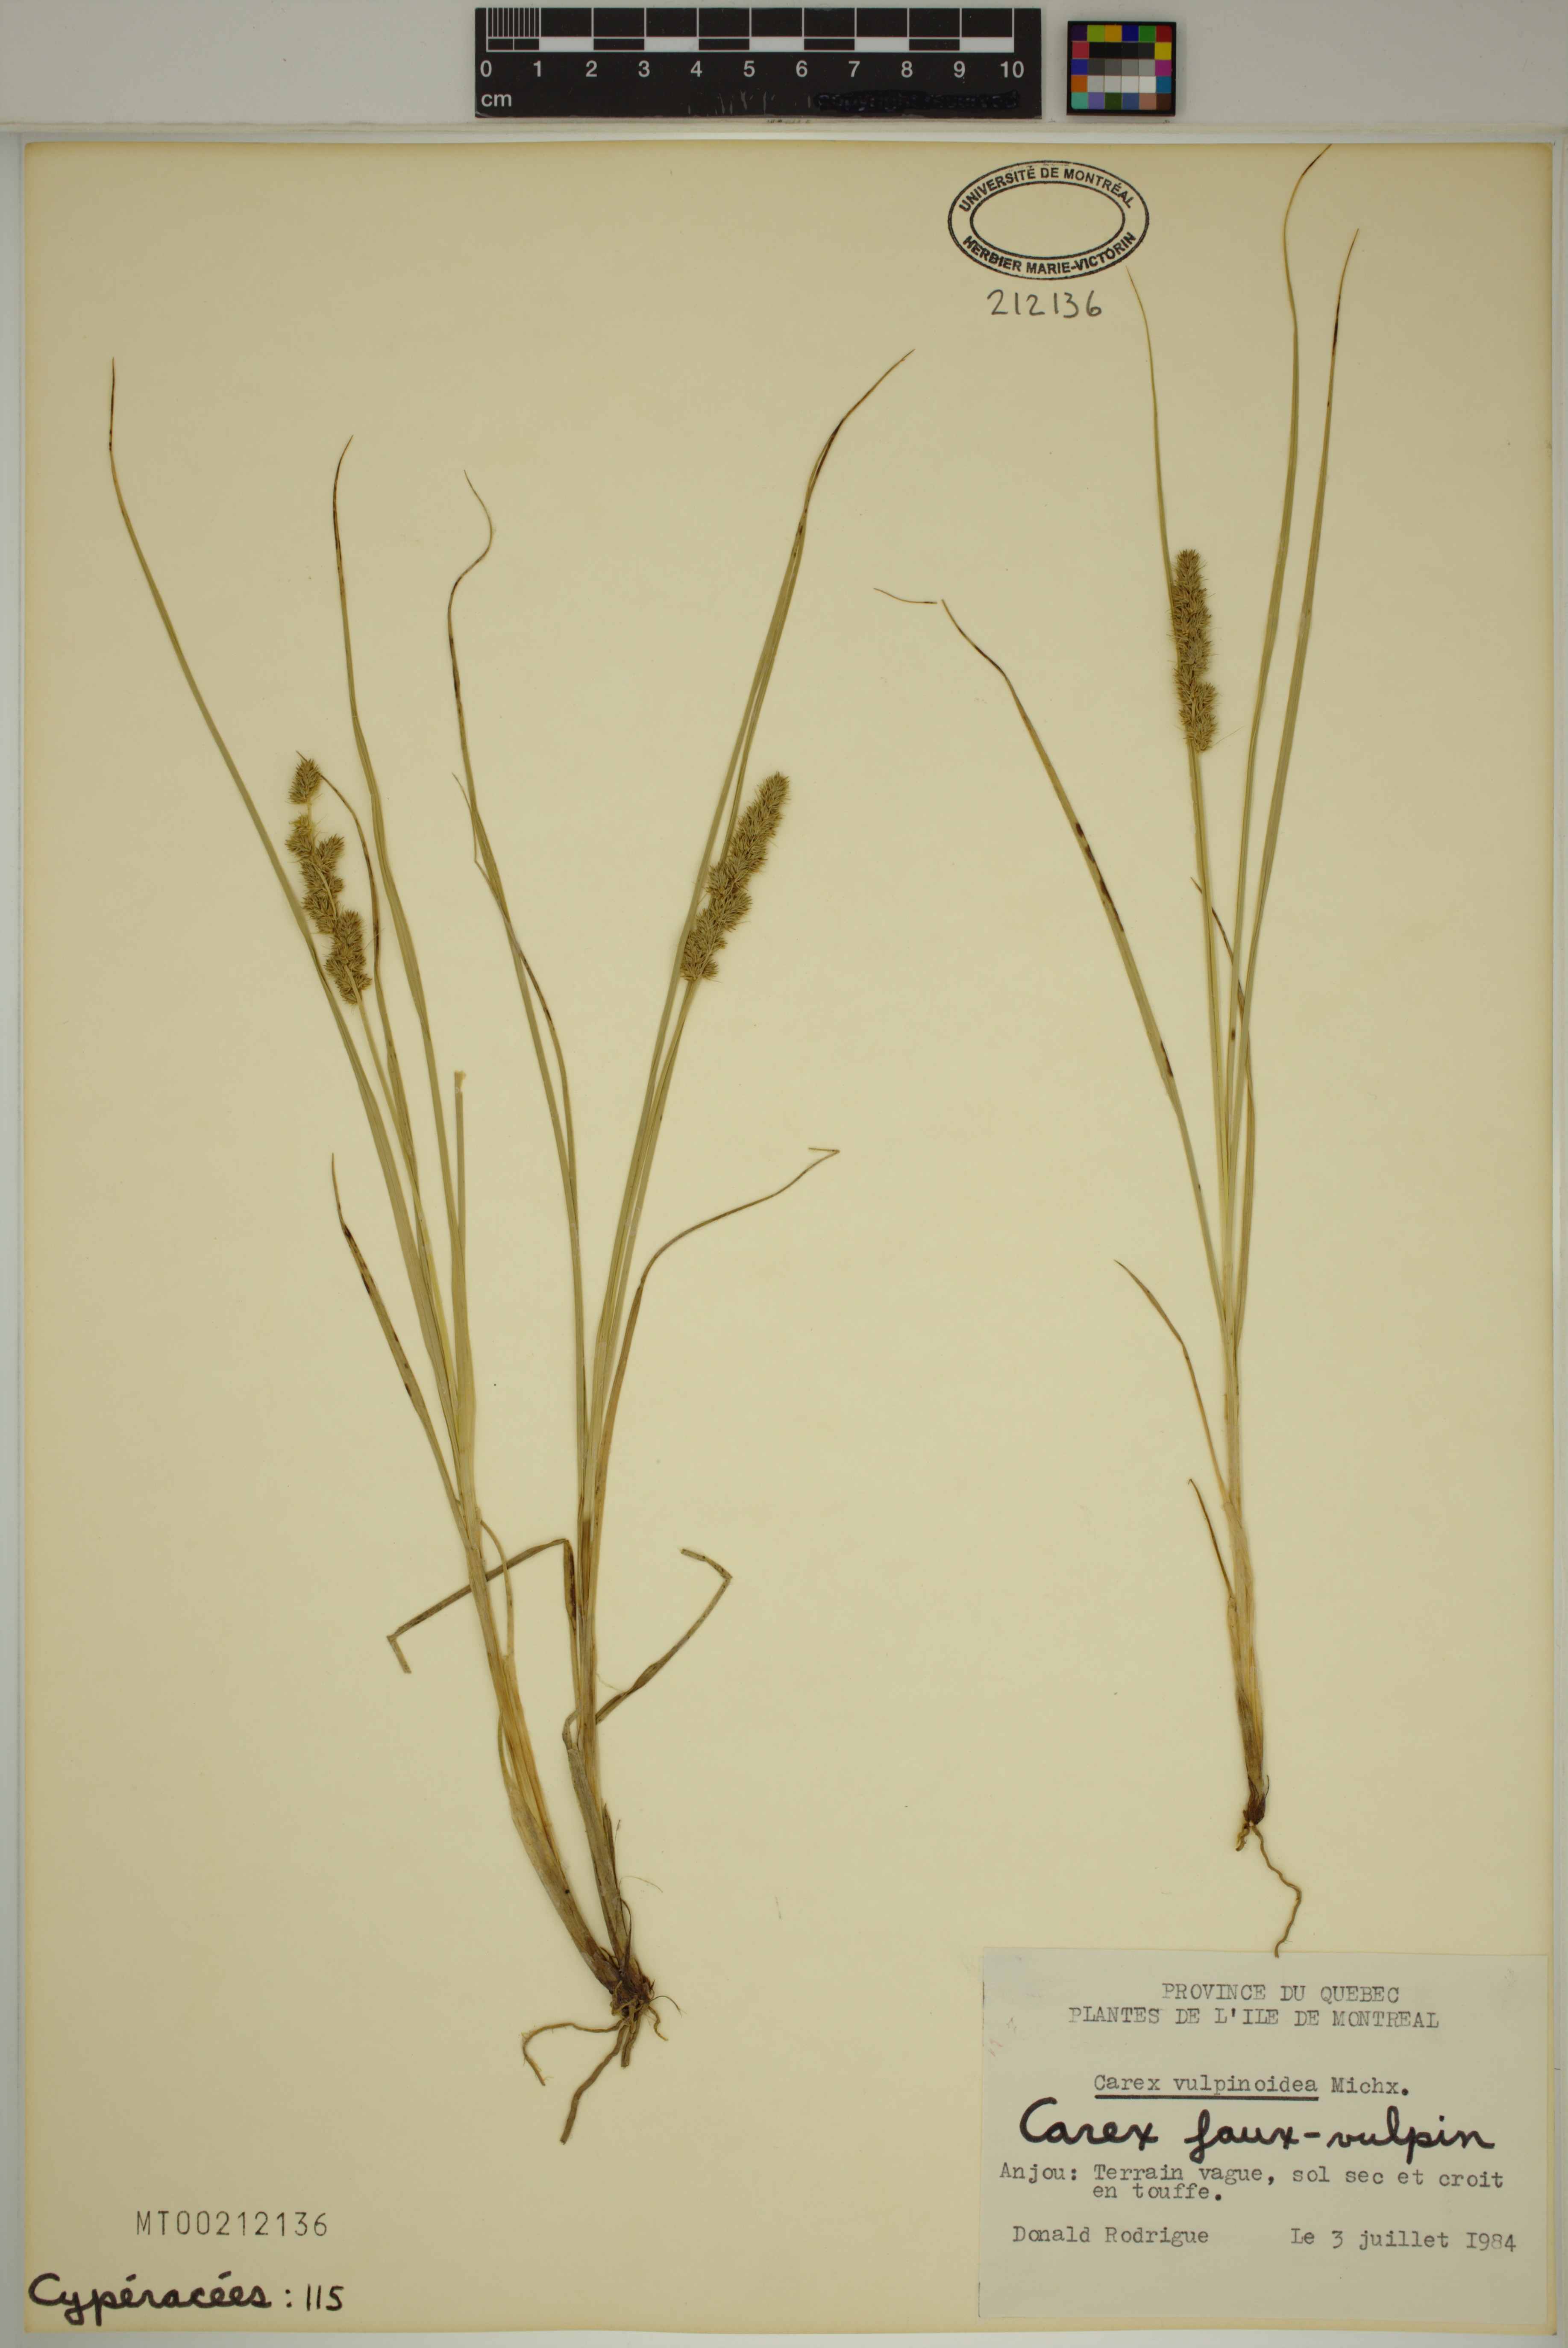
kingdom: Plantae
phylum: Tracheophyta
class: Liliopsida
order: Poales
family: Cyperaceae
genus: Carex
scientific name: Carex vulpinoidea
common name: American fox-sedge
